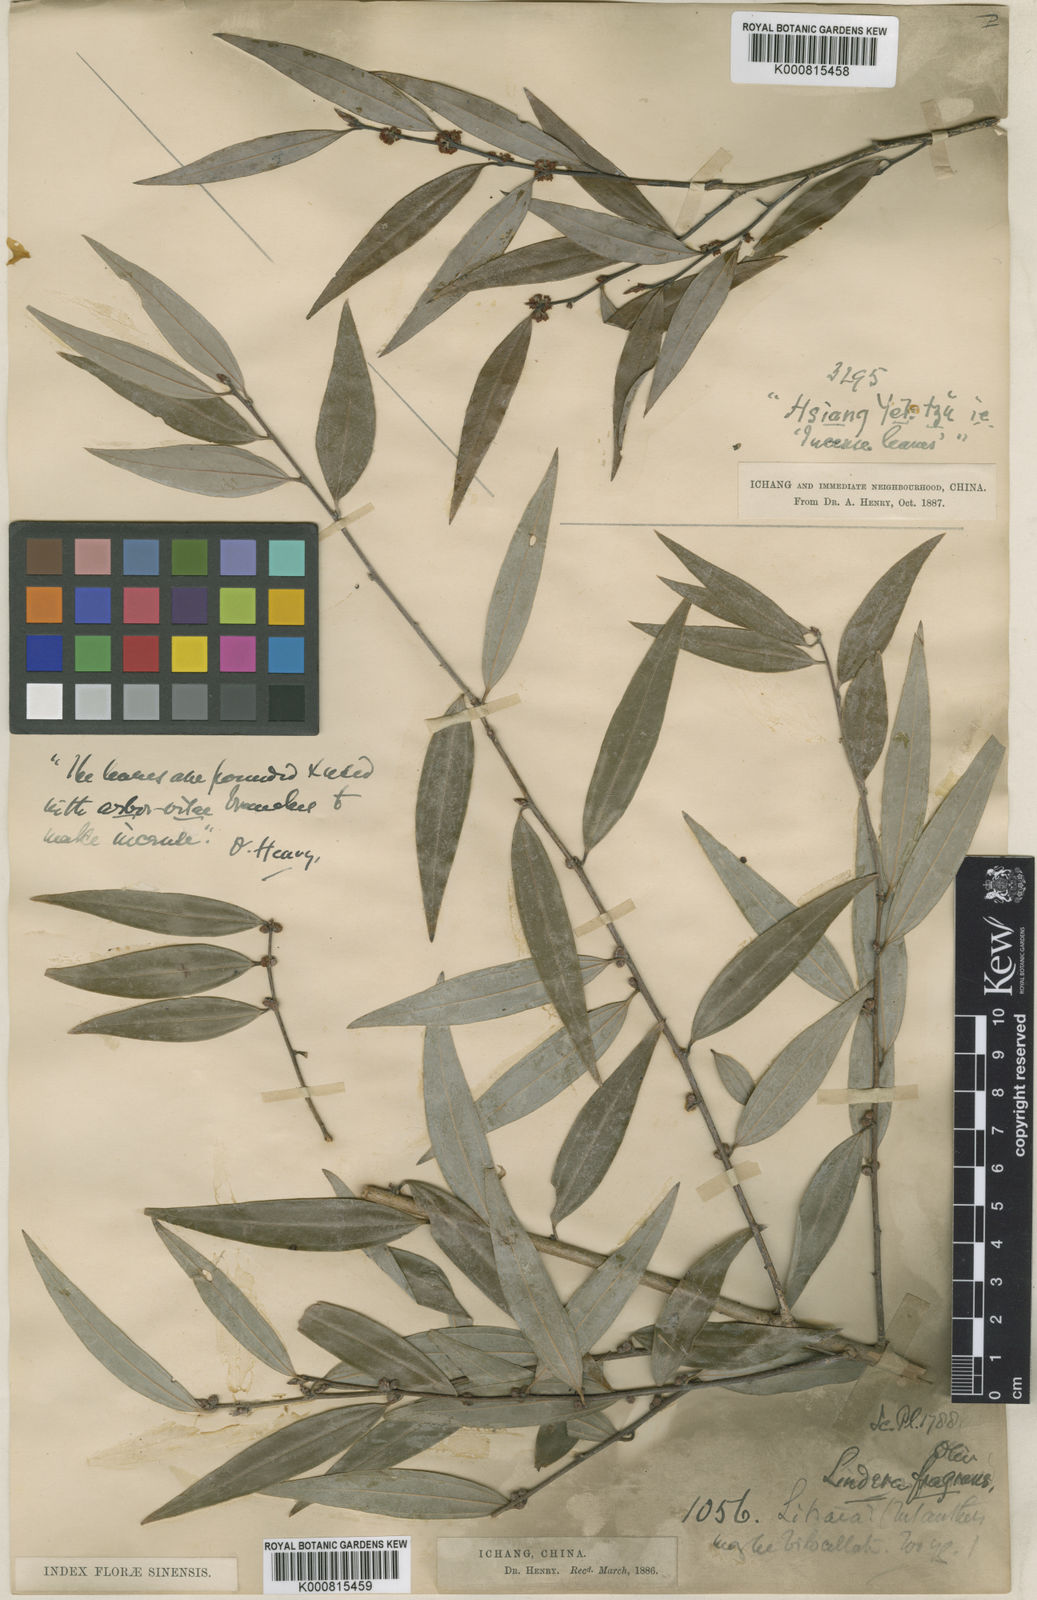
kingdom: Plantae
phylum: Tracheophyta
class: Magnoliopsida
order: Laurales
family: Lauraceae
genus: Lindera
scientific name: Lindera fragrans
